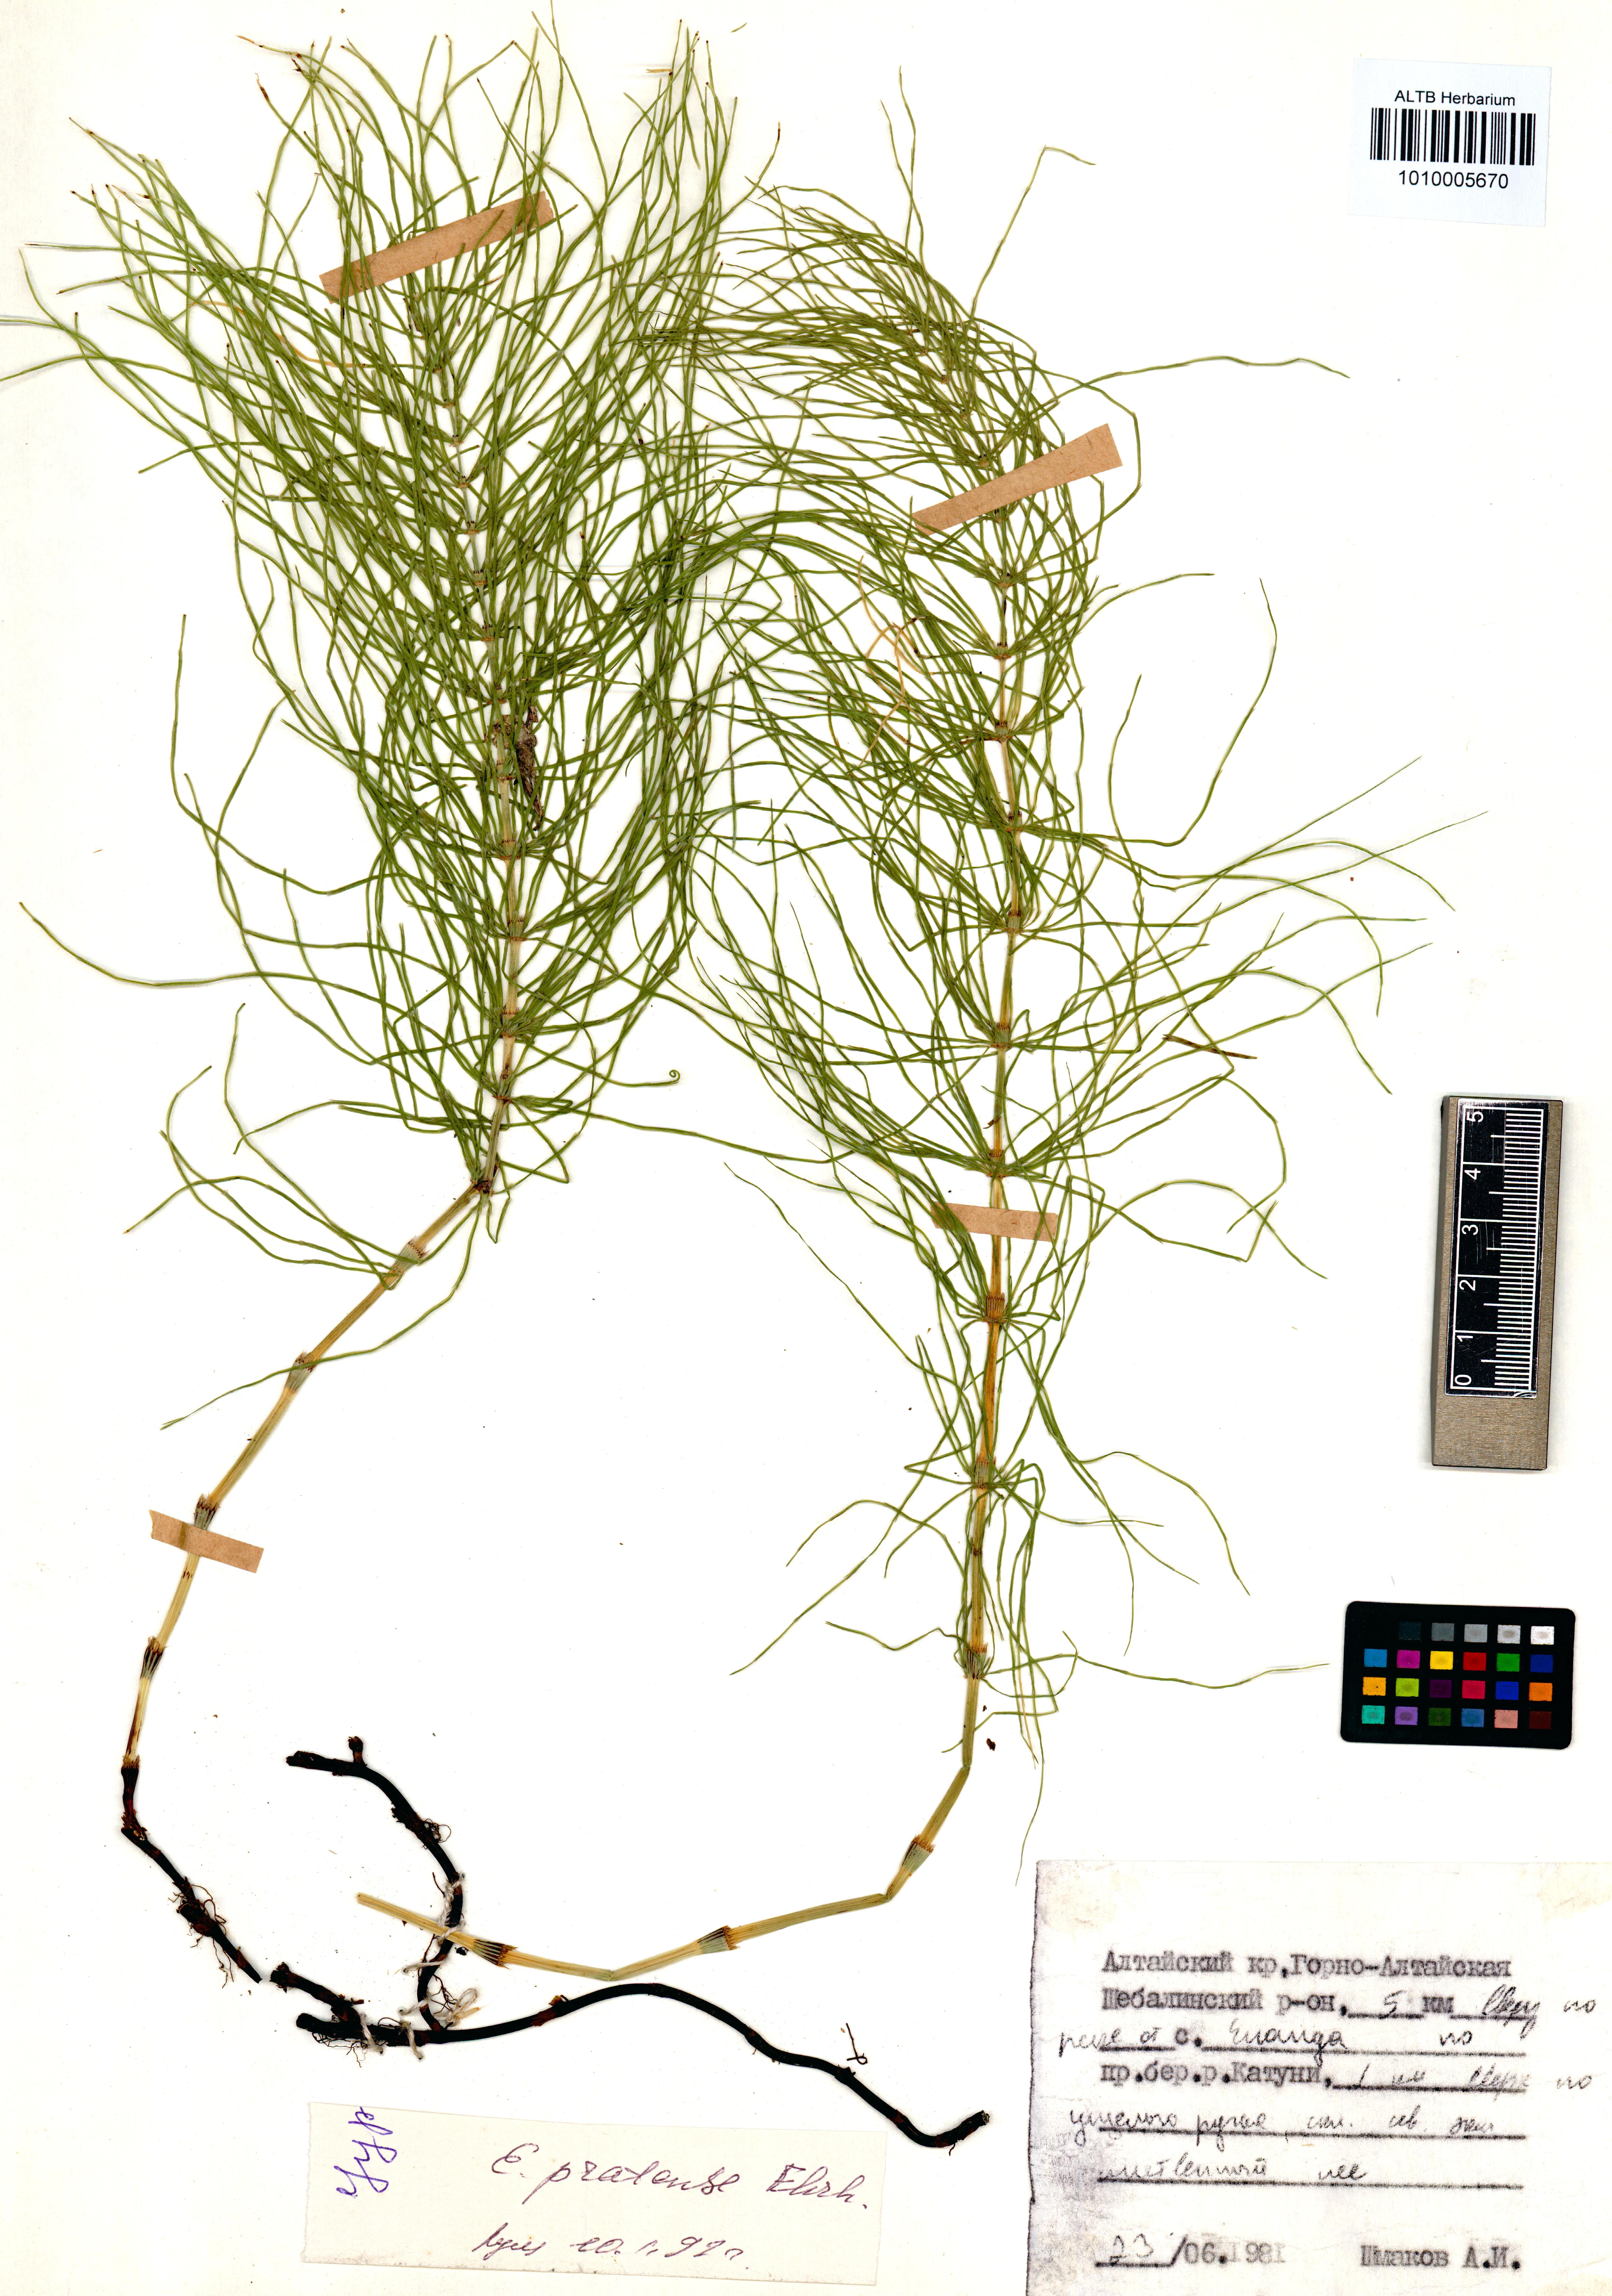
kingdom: Plantae
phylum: Tracheophyta
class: Polypodiopsida
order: Equisetales
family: Equisetaceae
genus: Equisetum
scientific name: Equisetum pratense
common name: Meadow horsetail
